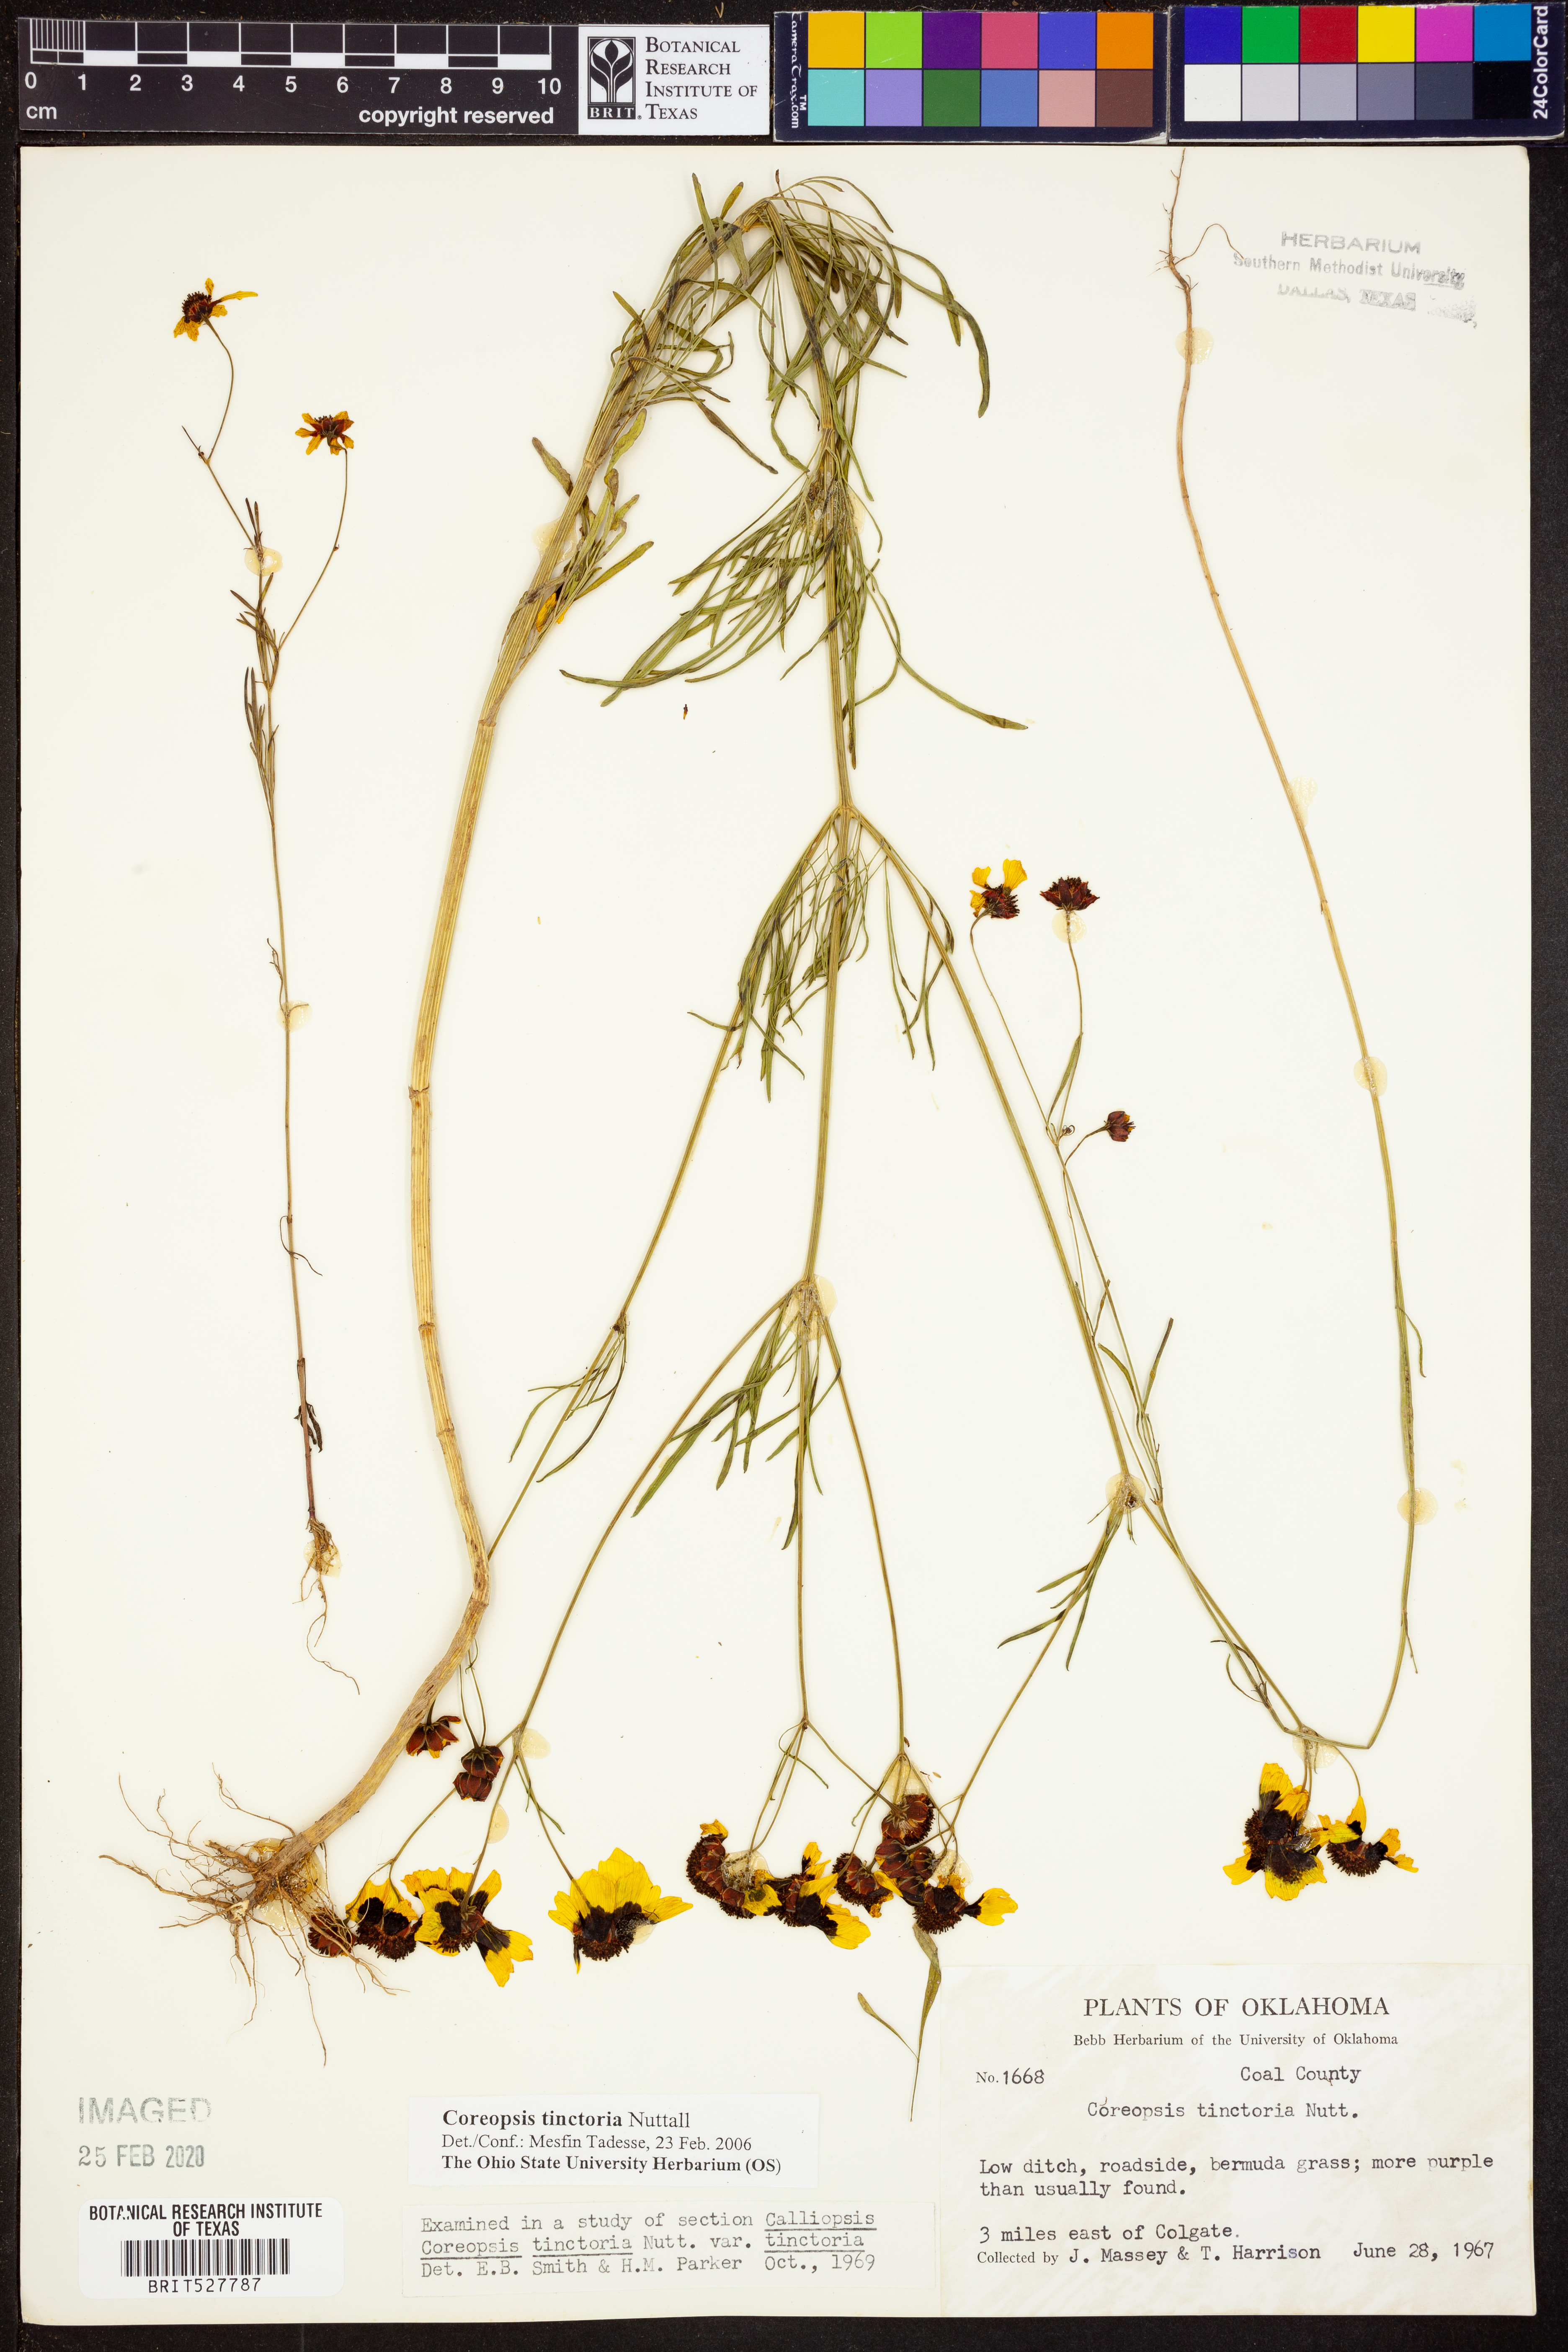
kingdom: Plantae
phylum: Tracheophyta
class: Magnoliopsida
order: Asterales
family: Asteraceae
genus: Coreopsis
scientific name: Coreopsis tinctoria
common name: Garden tickseed
